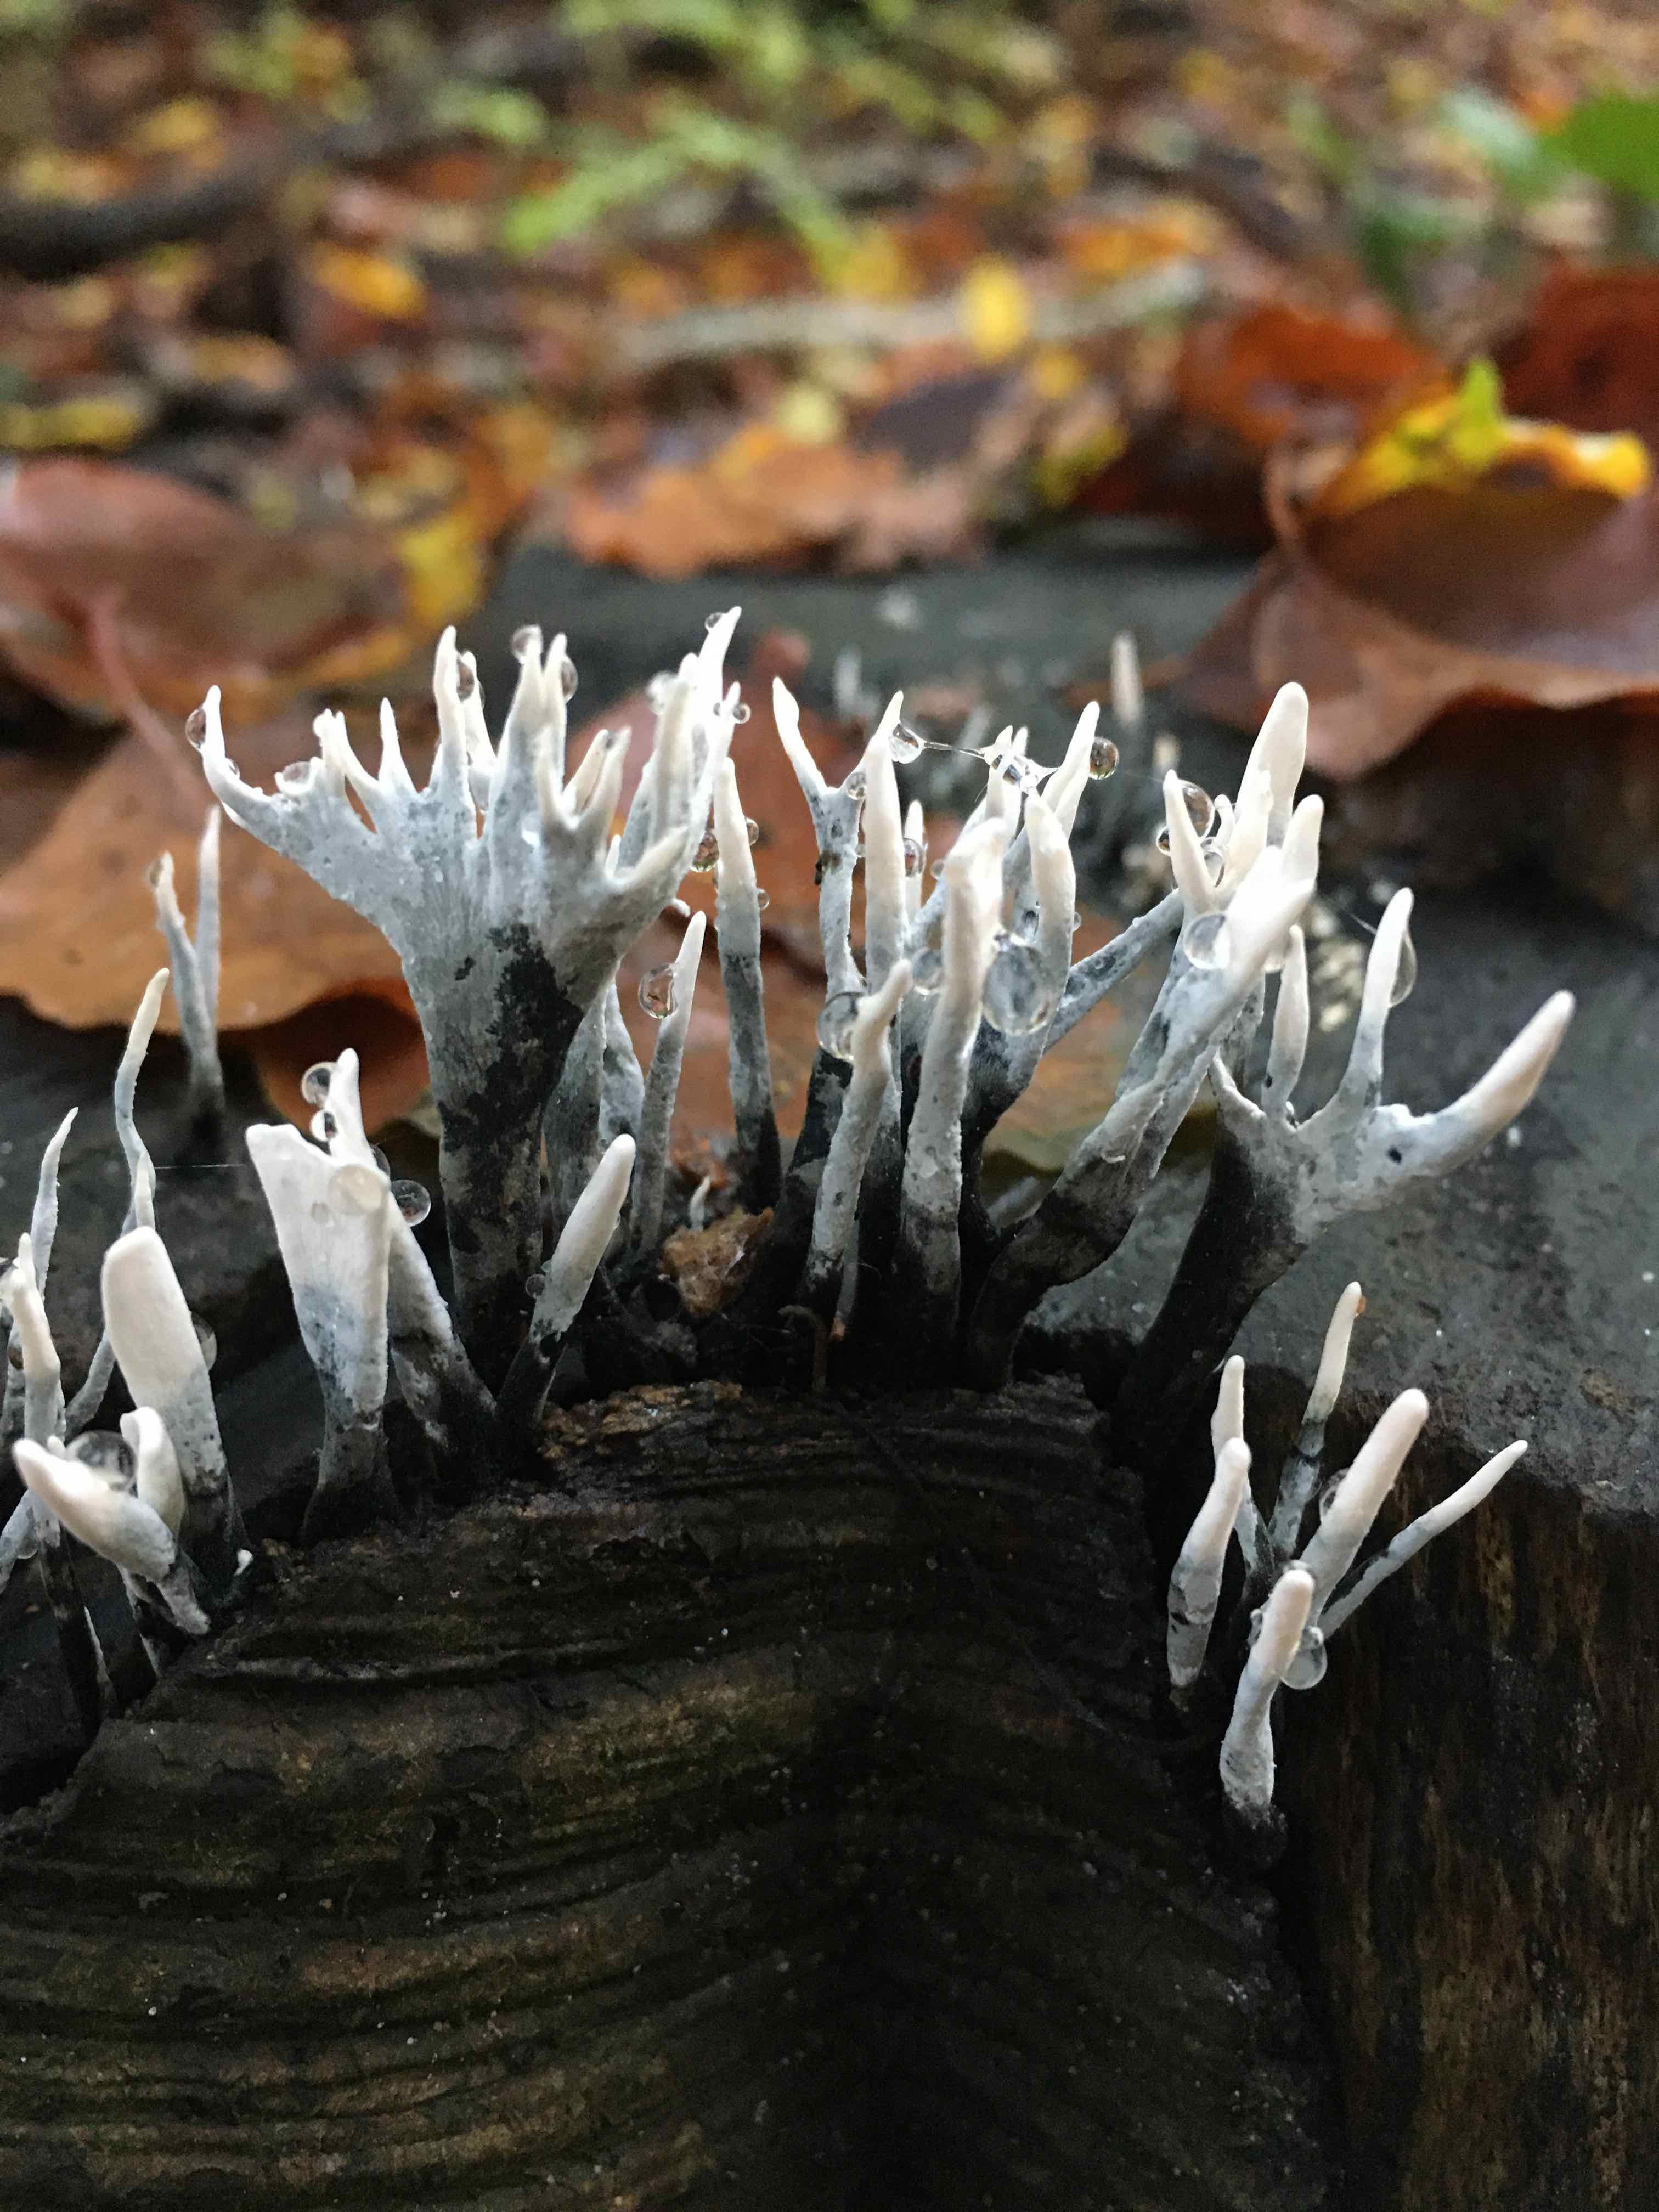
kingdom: Fungi
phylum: Ascomycota
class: Sordariomycetes
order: Xylariales
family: Xylariaceae
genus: Xylaria
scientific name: Xylaria hypoxylon
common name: grenet stødsvamp
